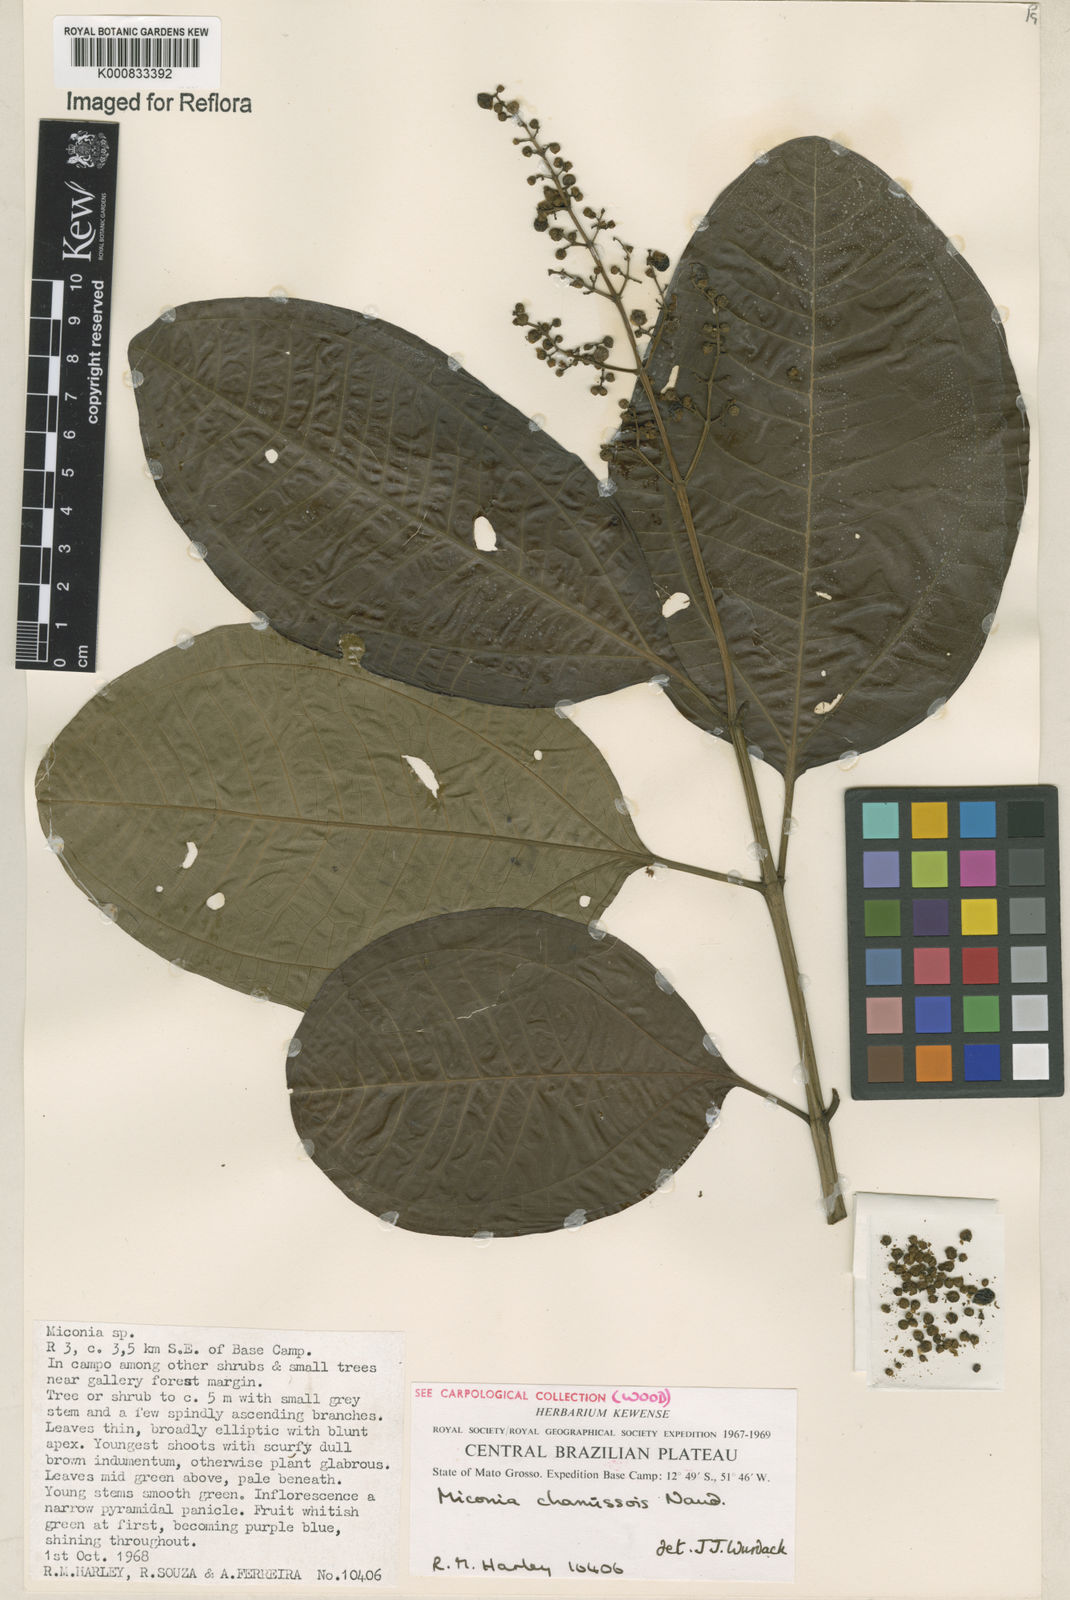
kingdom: Plantae
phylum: Tracheophyta
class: Magnoliopsida
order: Myrtales
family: Melastomataceae
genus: Miconia
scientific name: Miconia chamissois
